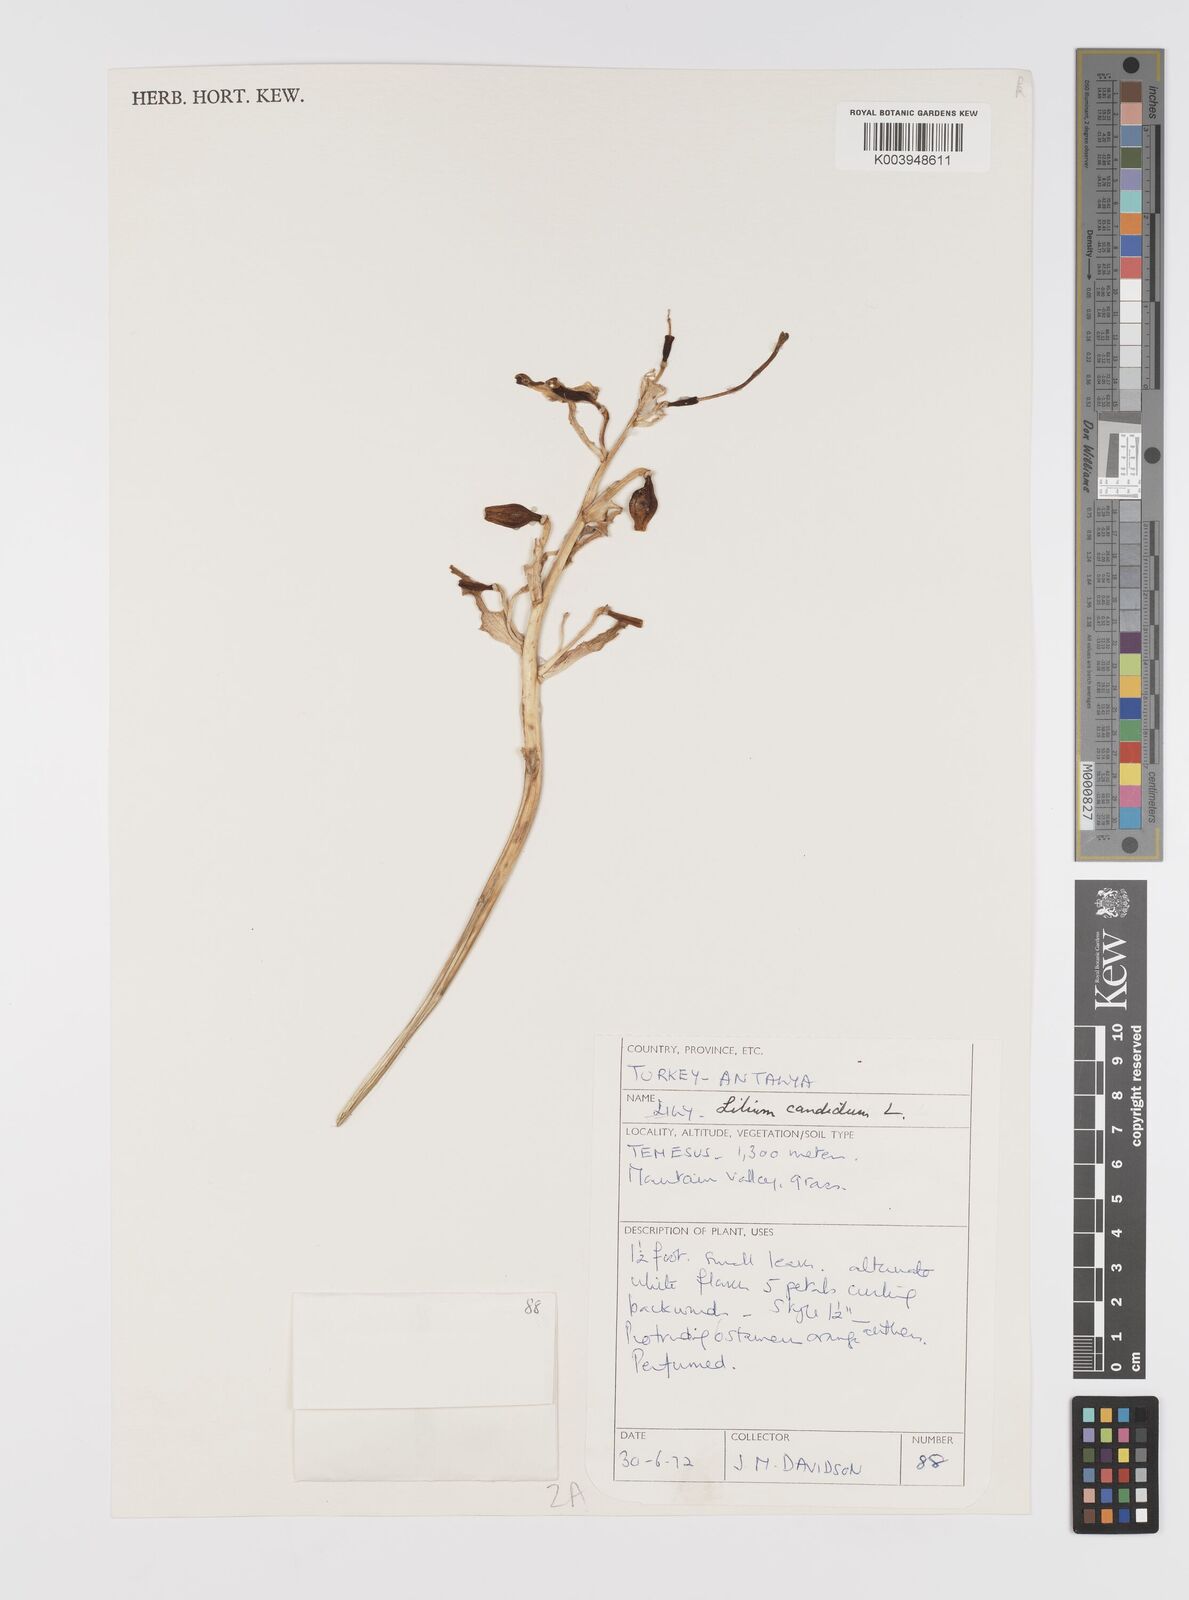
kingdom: Plantae
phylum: Tracheophyta
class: Liliopsida
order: Liliales
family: Liliaceae
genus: Lilium
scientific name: Lilium candidum
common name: Madonna lily
